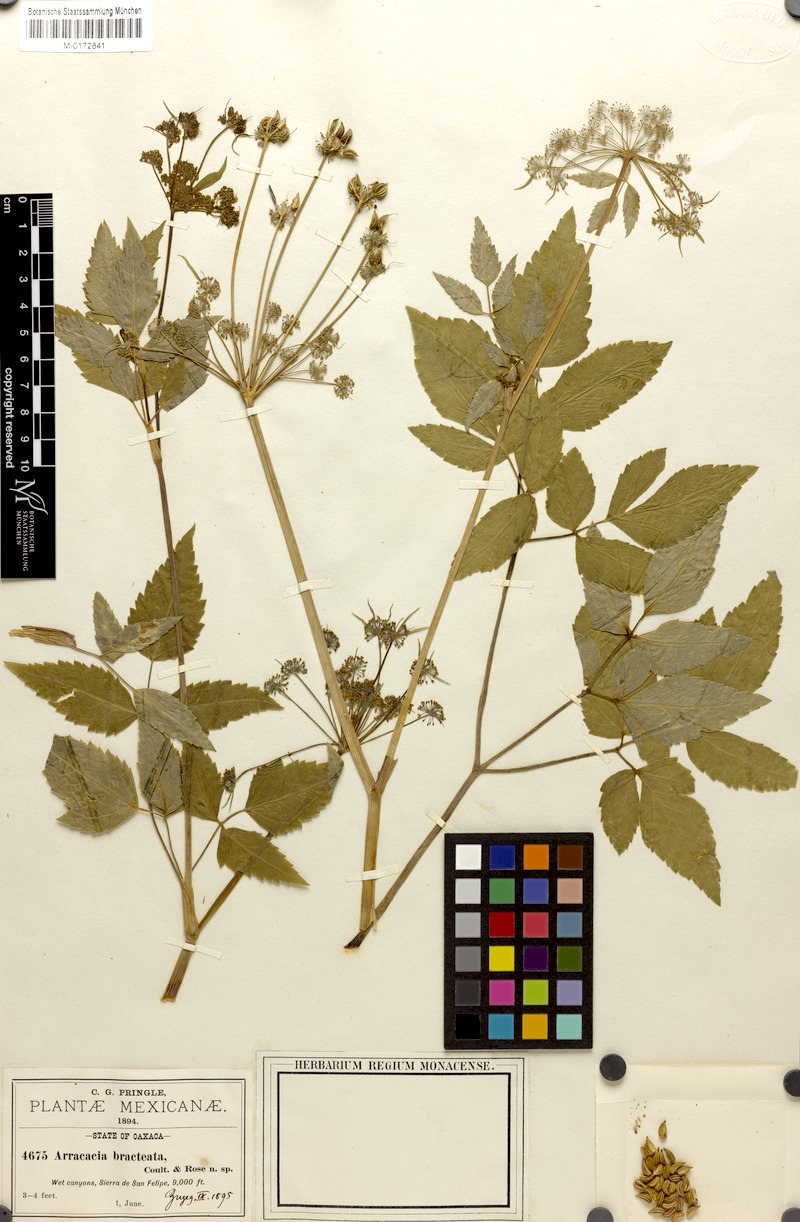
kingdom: Plantae
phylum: Tracheophyta
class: Magnoliopsida
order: Apiales
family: Apiaceae
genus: Arracacia
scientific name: Arracacia bracteata
